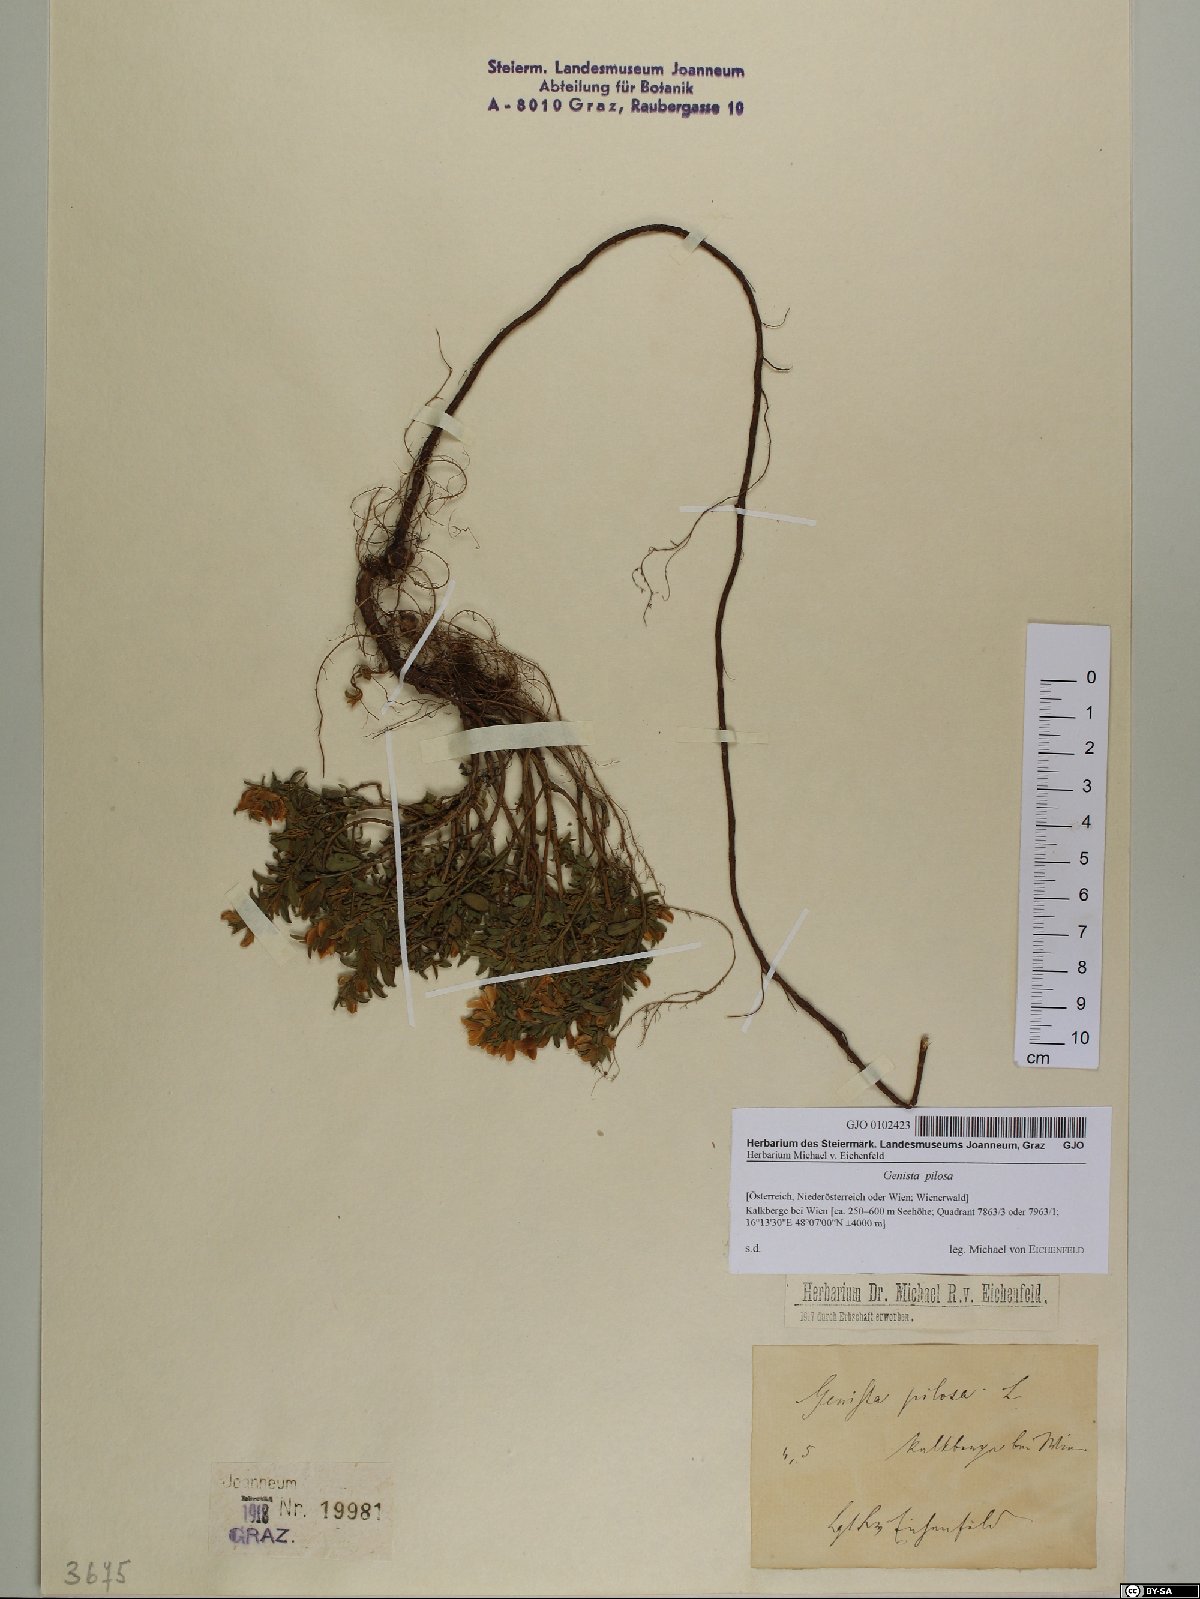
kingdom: Plantae
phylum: Tracheophyta
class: Magnoliopsida
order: Fabales
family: Fabaceae
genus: Genista
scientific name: Genista pilosa
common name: Hairy greenweed
